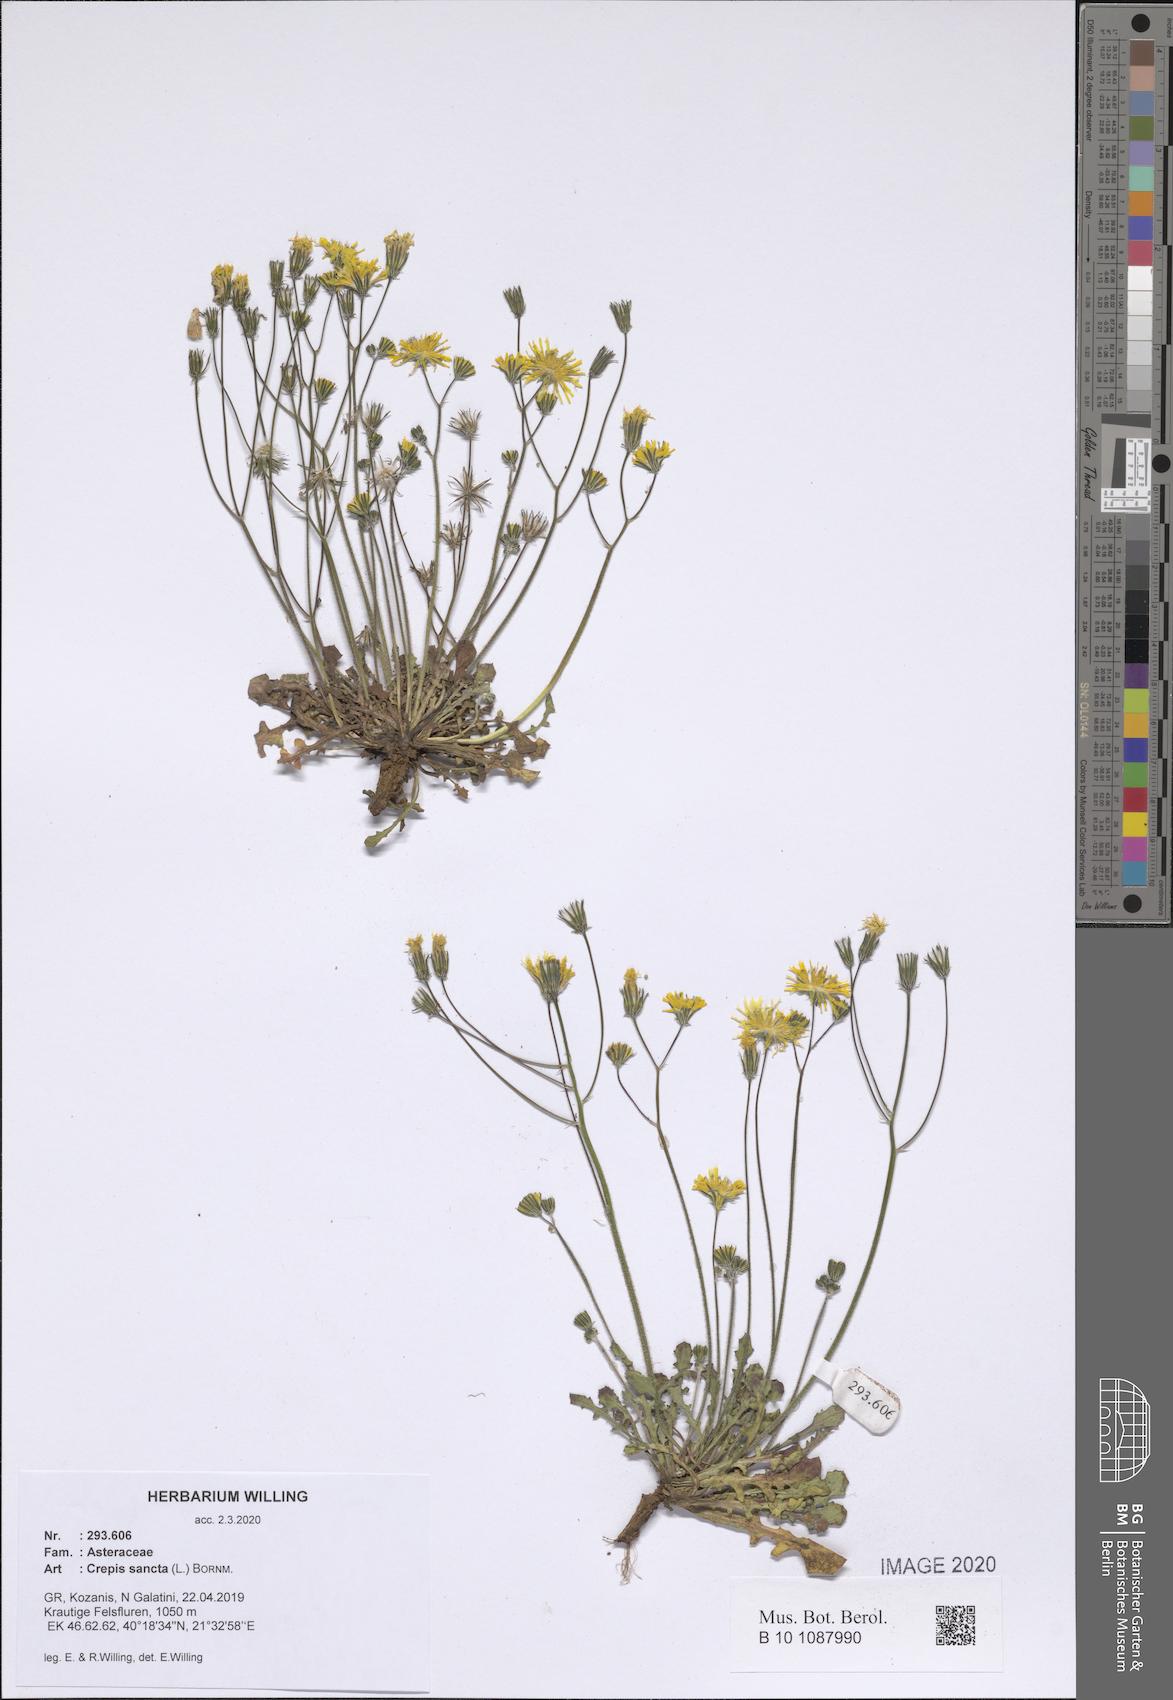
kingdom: Plantae
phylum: Tracheophyta
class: Magnoliopsida
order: Asterales
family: Asteraceae
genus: Crepis
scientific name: Crepis sancta
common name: Hawk's-beard
